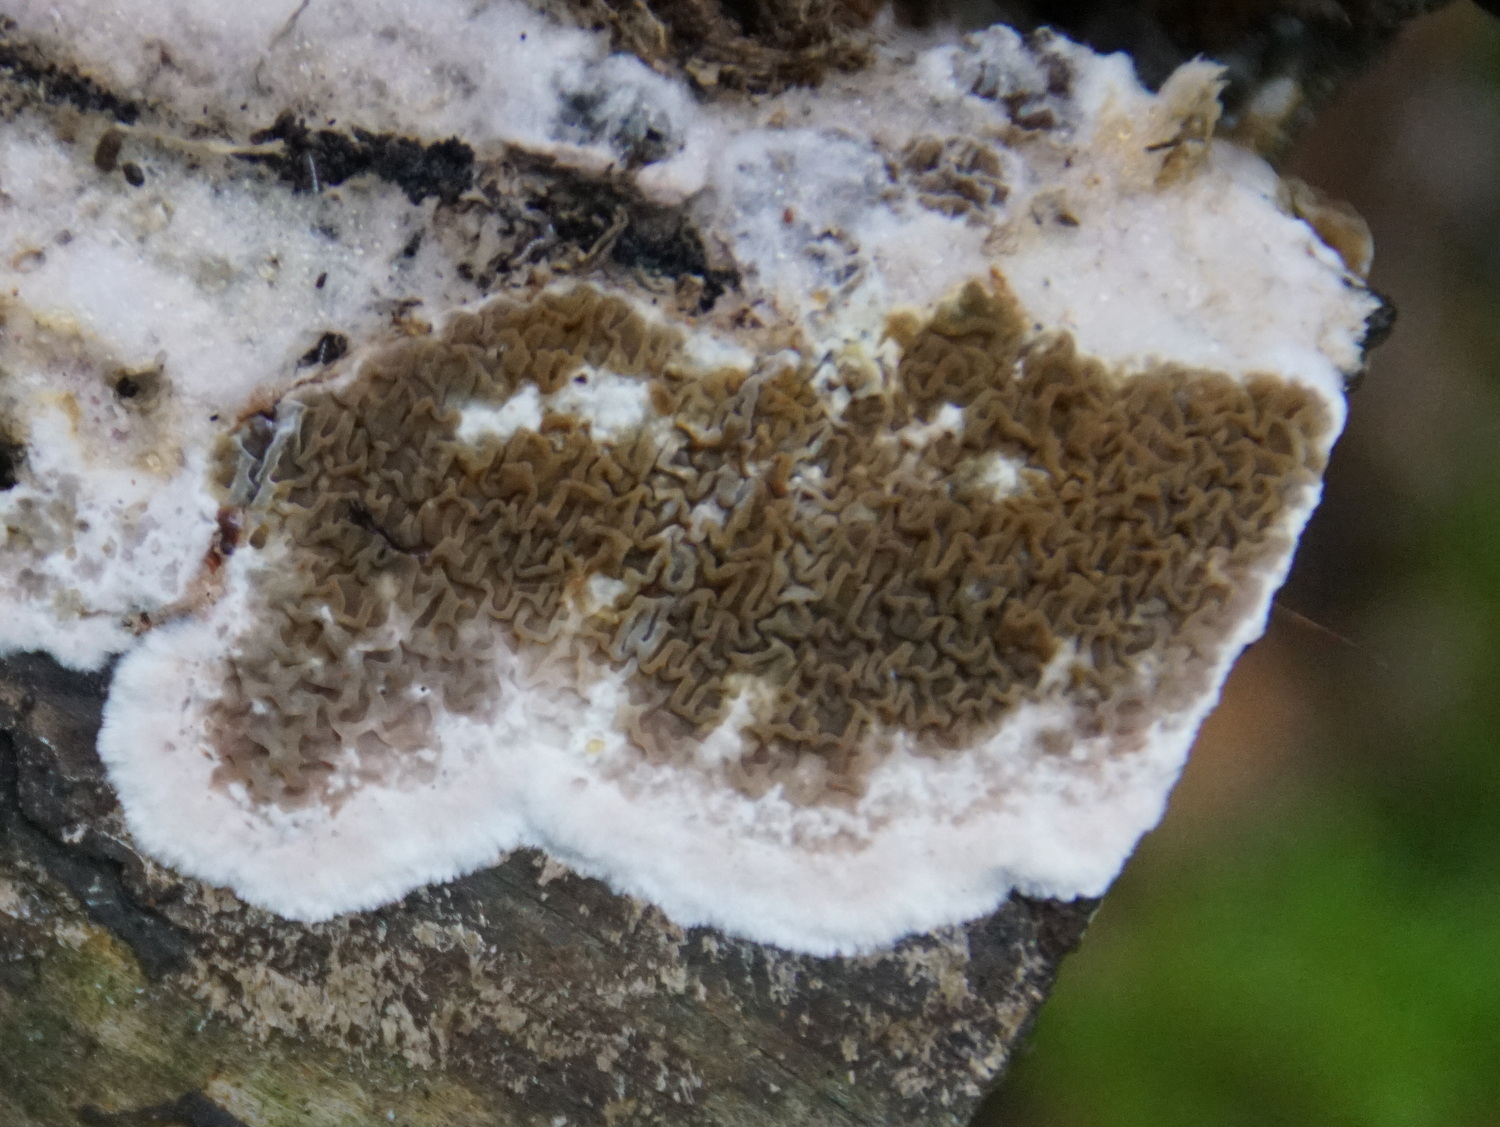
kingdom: Fungi
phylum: Basidiomycota
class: Agaricomycetes
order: Boletales
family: Serpulaceae
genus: Serpula
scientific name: Serpula himantioides
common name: tyndkødet hussvamp
